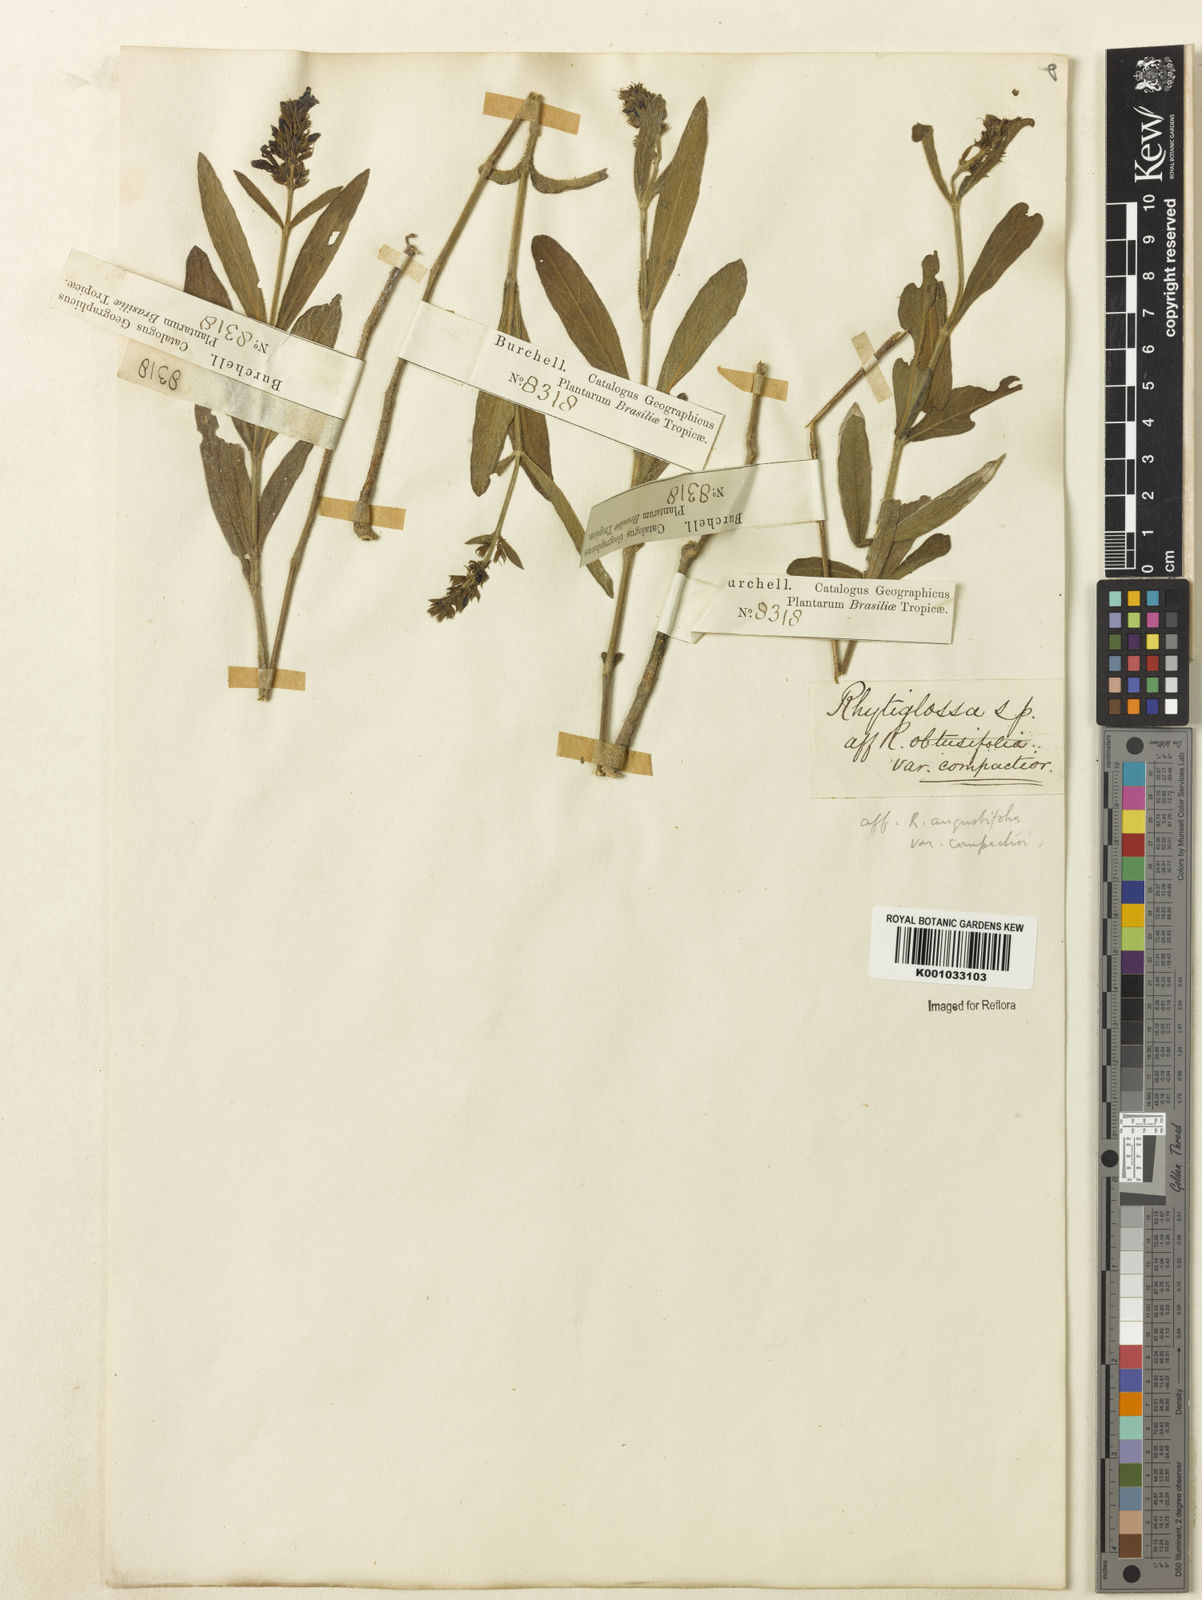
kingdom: Plantae
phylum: Tracheophyta
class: Magnoliopsida
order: Lamiales
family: Acanthaceae
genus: Dianthera
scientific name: Dianthera angustifolia
